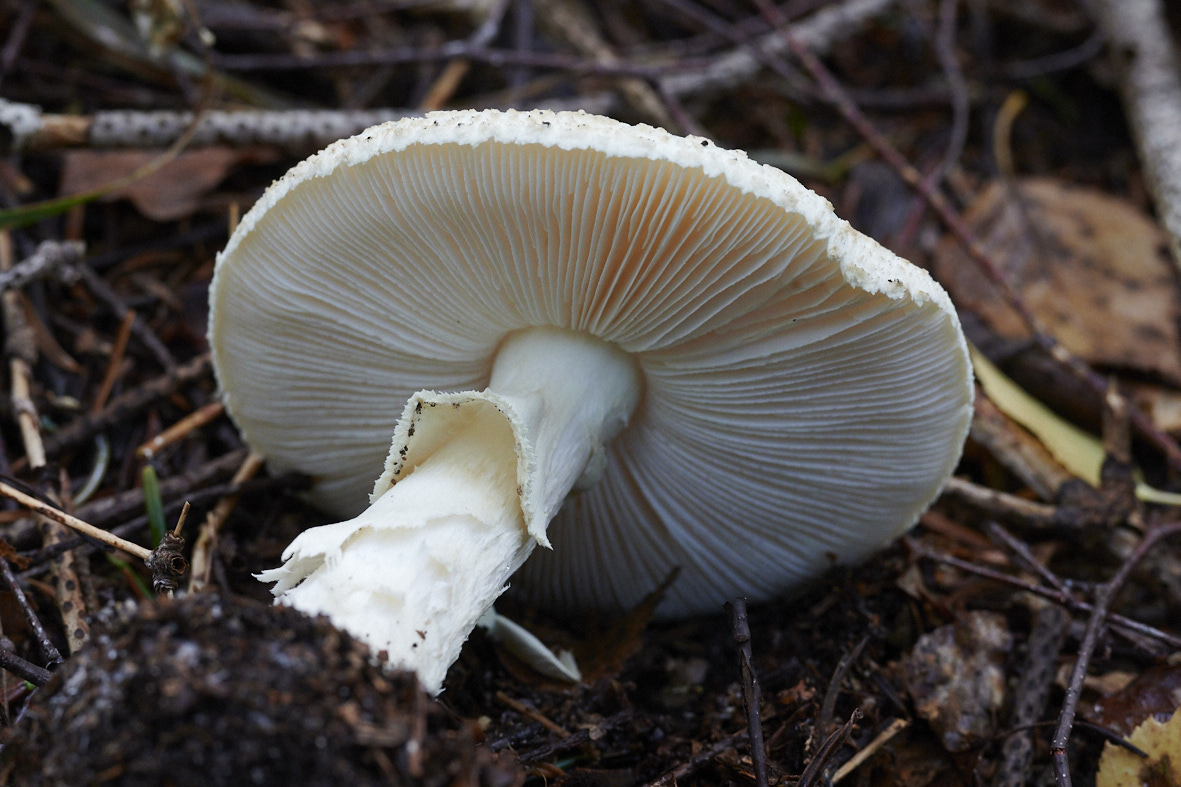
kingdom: Fungi
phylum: Basidiomycota
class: Agaricomycetes
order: Agaricales
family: Amanitaceae
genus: Amanita
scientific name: Amanita citrina
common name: kugleknoldet fluesvamp
